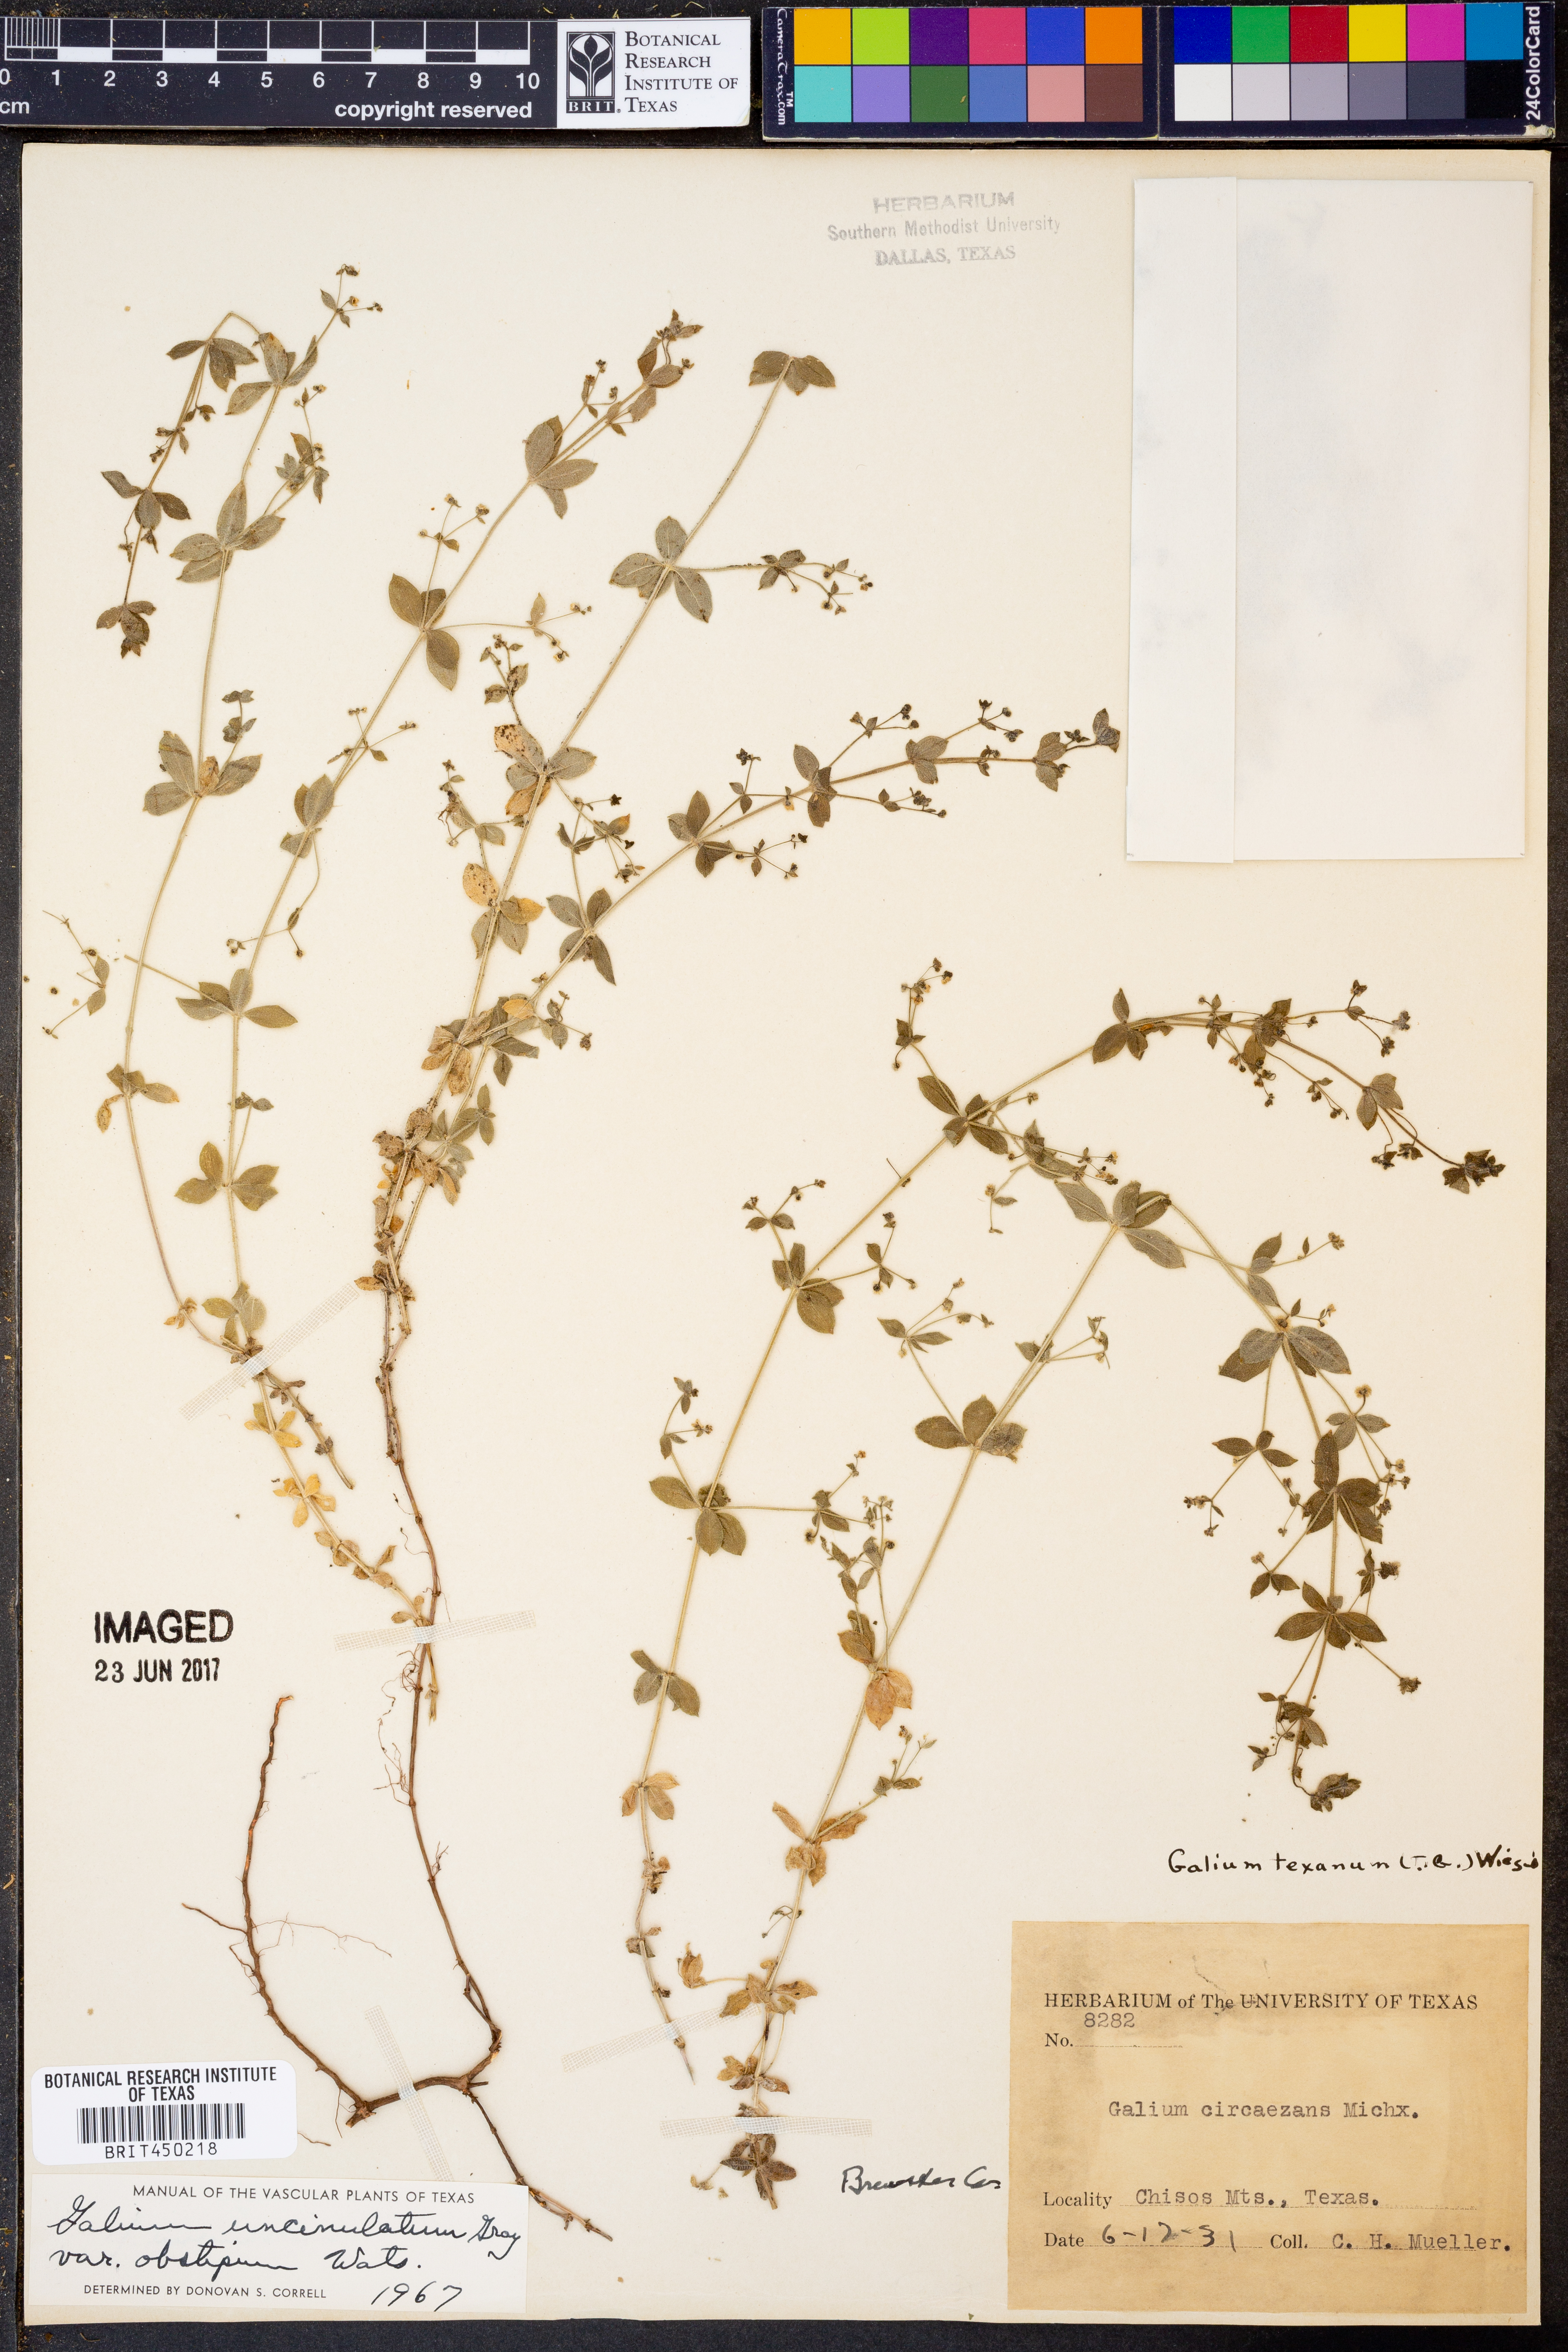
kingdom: Plantae
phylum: Tracheophyta
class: Magnoliopsida
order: Gentianales
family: Rubiaceae
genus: Galium
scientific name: Galium uncinulatum
